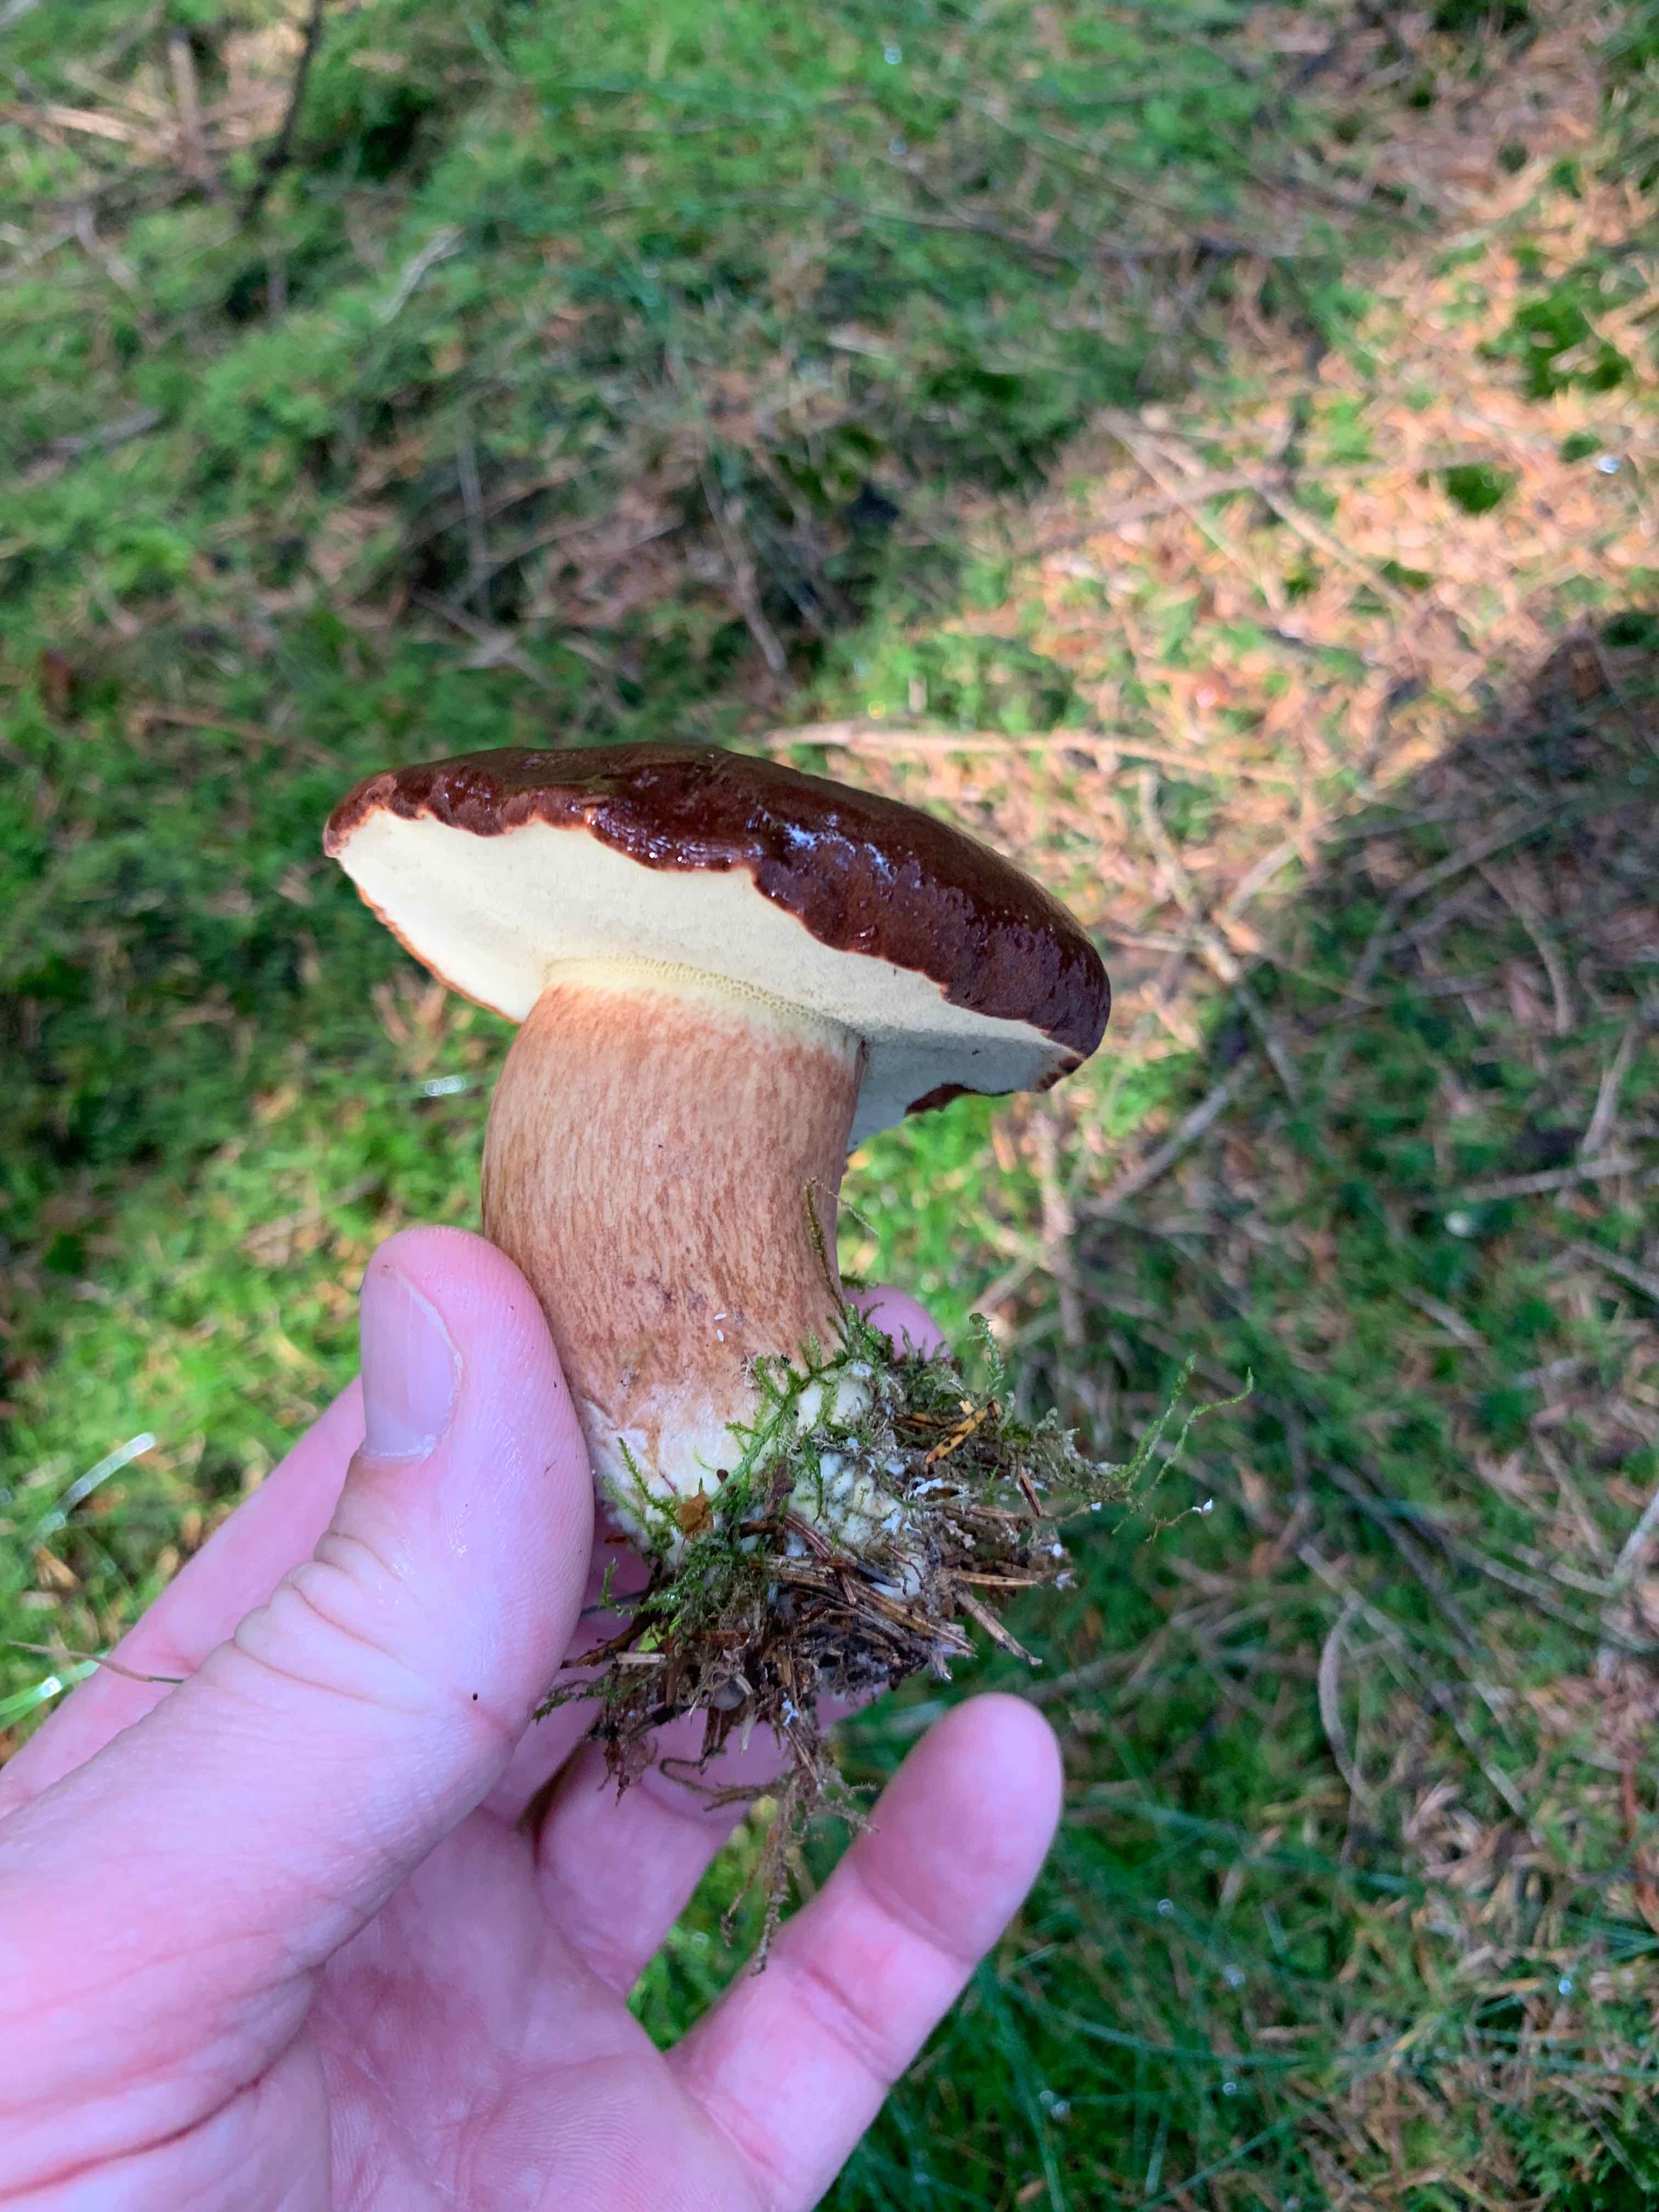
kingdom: Fungi
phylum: Basidiomycota
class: Agaricomycetes
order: Boletales
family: Boletaceae
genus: Imleria
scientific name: Imleria badia
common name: brunstokket rørhat
